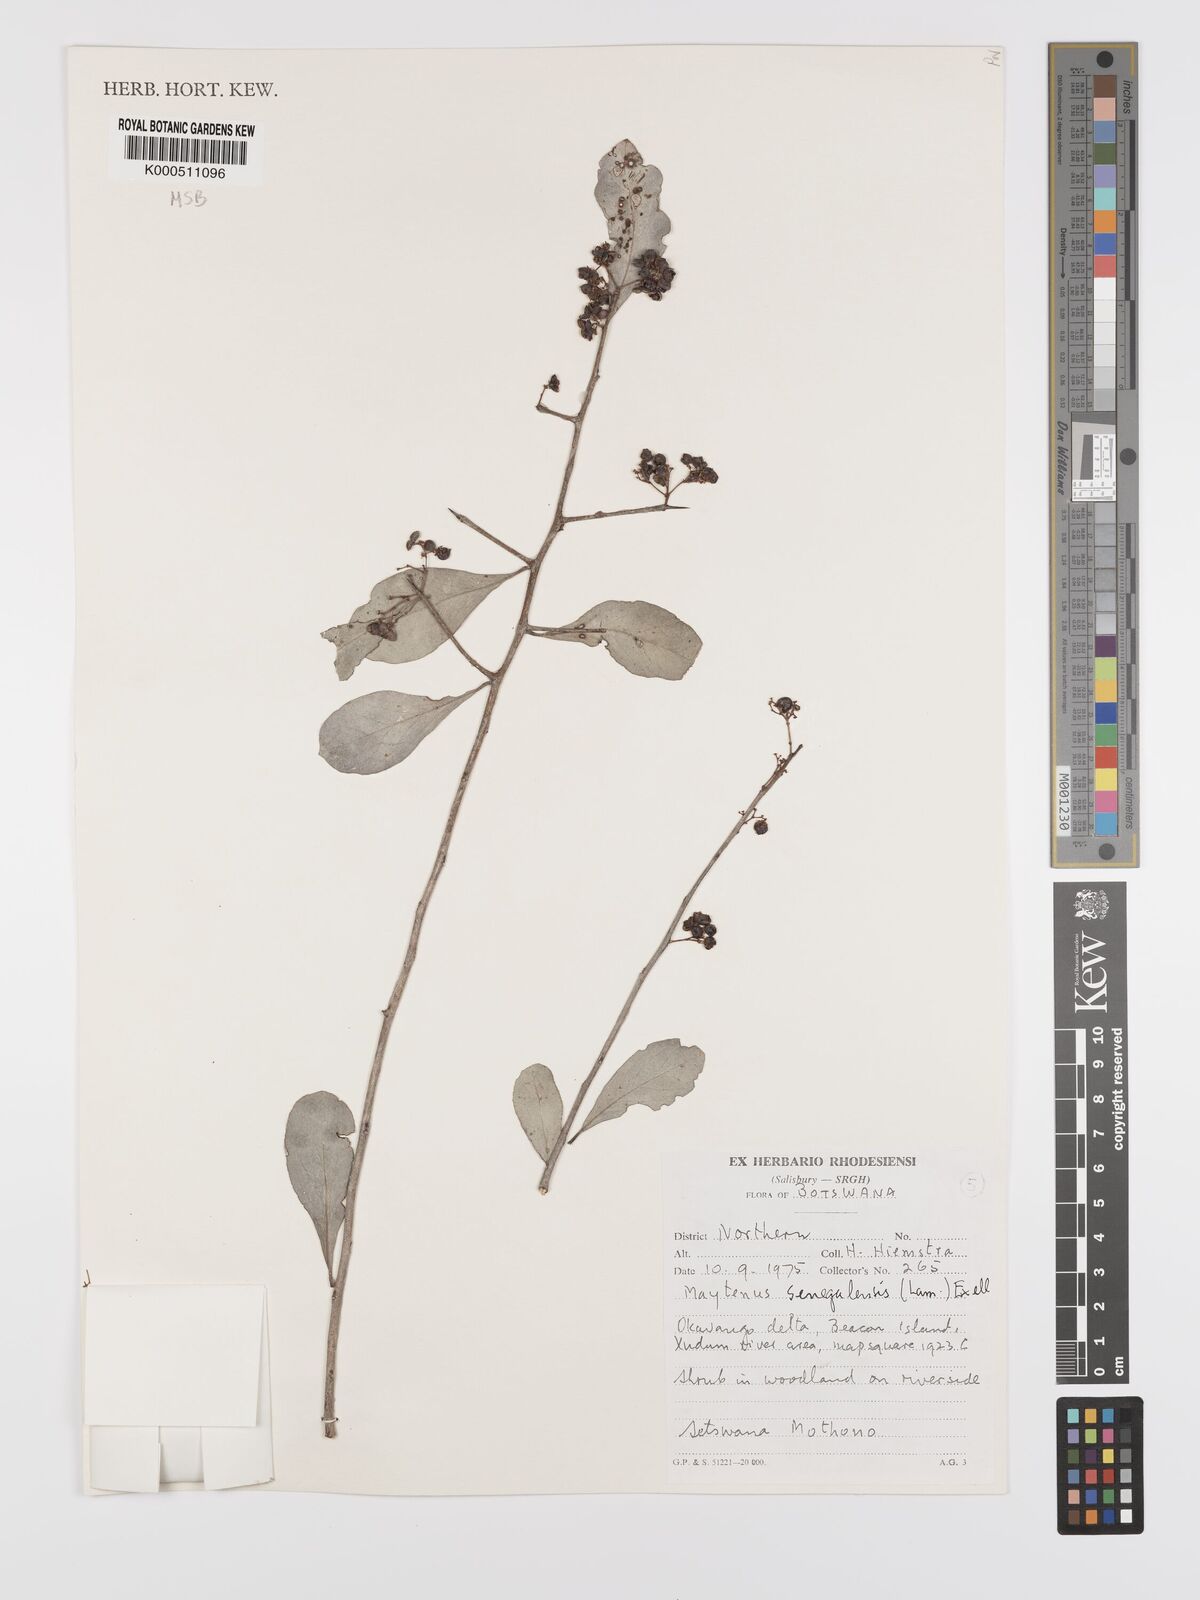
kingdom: Plantae
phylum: Tracheophyta
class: Magnoliopsida
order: Celastrales
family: Celastraceae
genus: Gymnosporia
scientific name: Gymnosporia senegalensis
